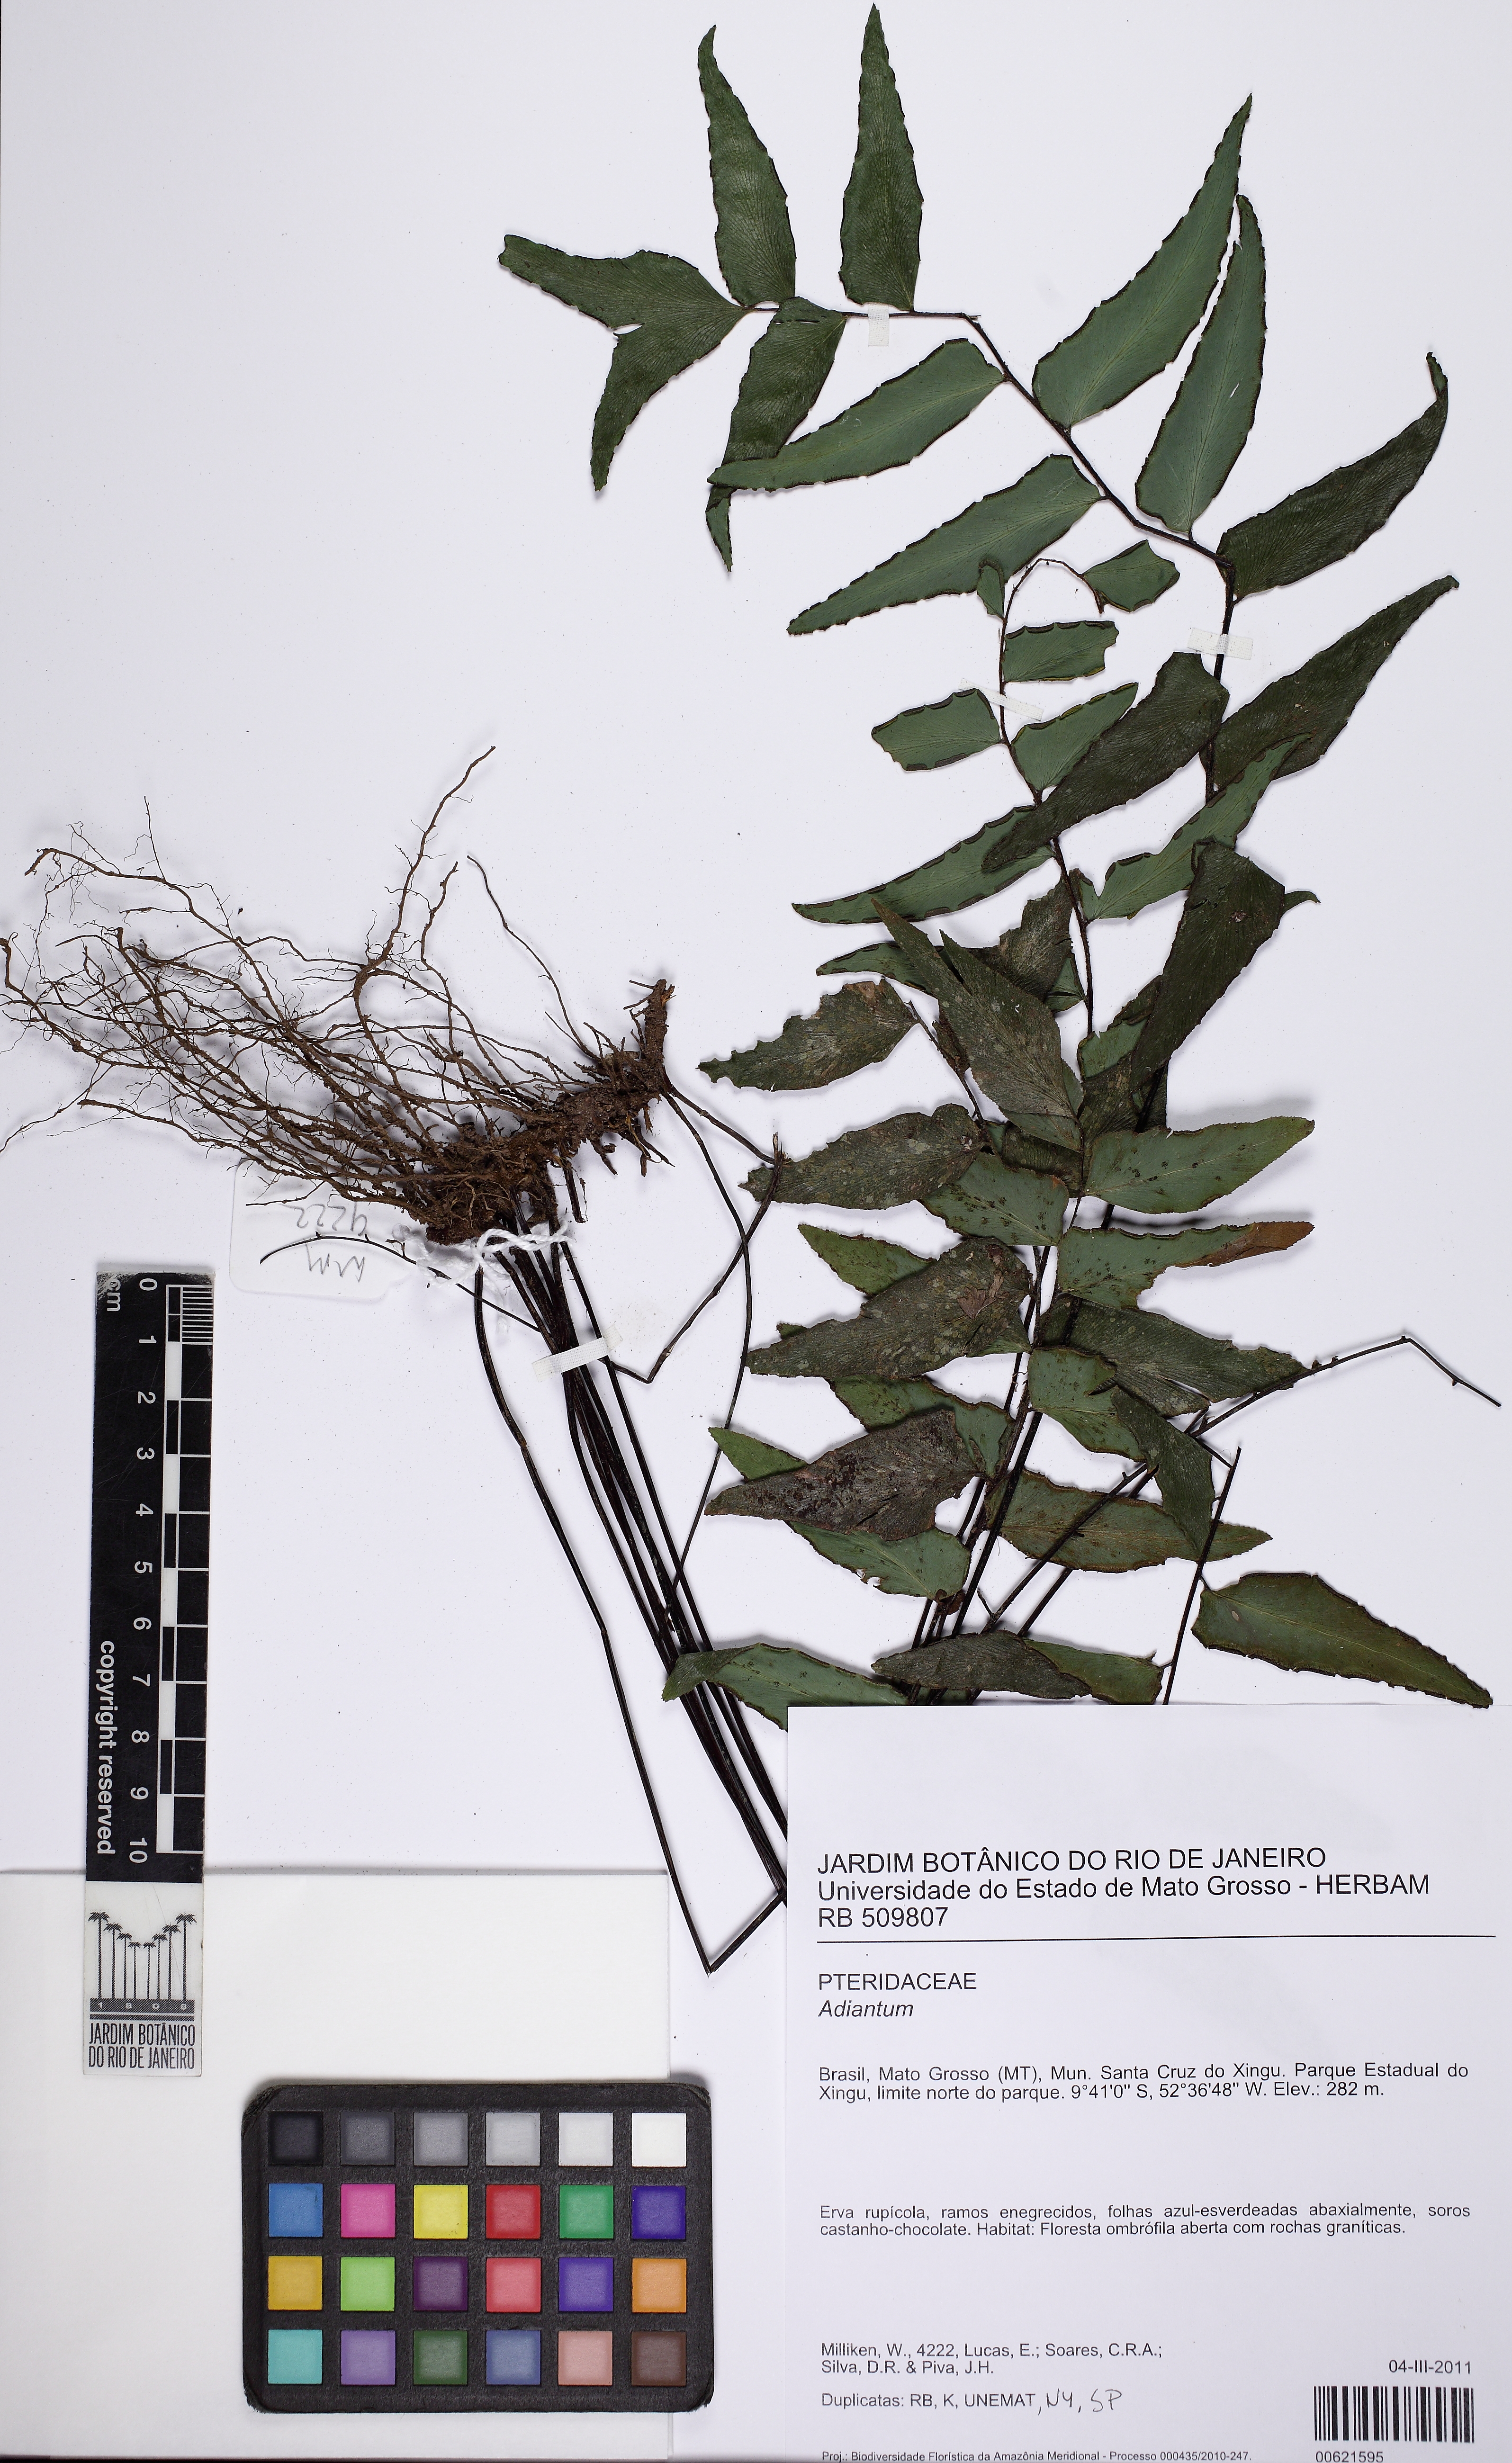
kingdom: Plantae
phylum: Tracheophyta
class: Polypodiopsida
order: Polypodiales
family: Pteridaceae
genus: Adiantum
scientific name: Adiantum petiolatum
